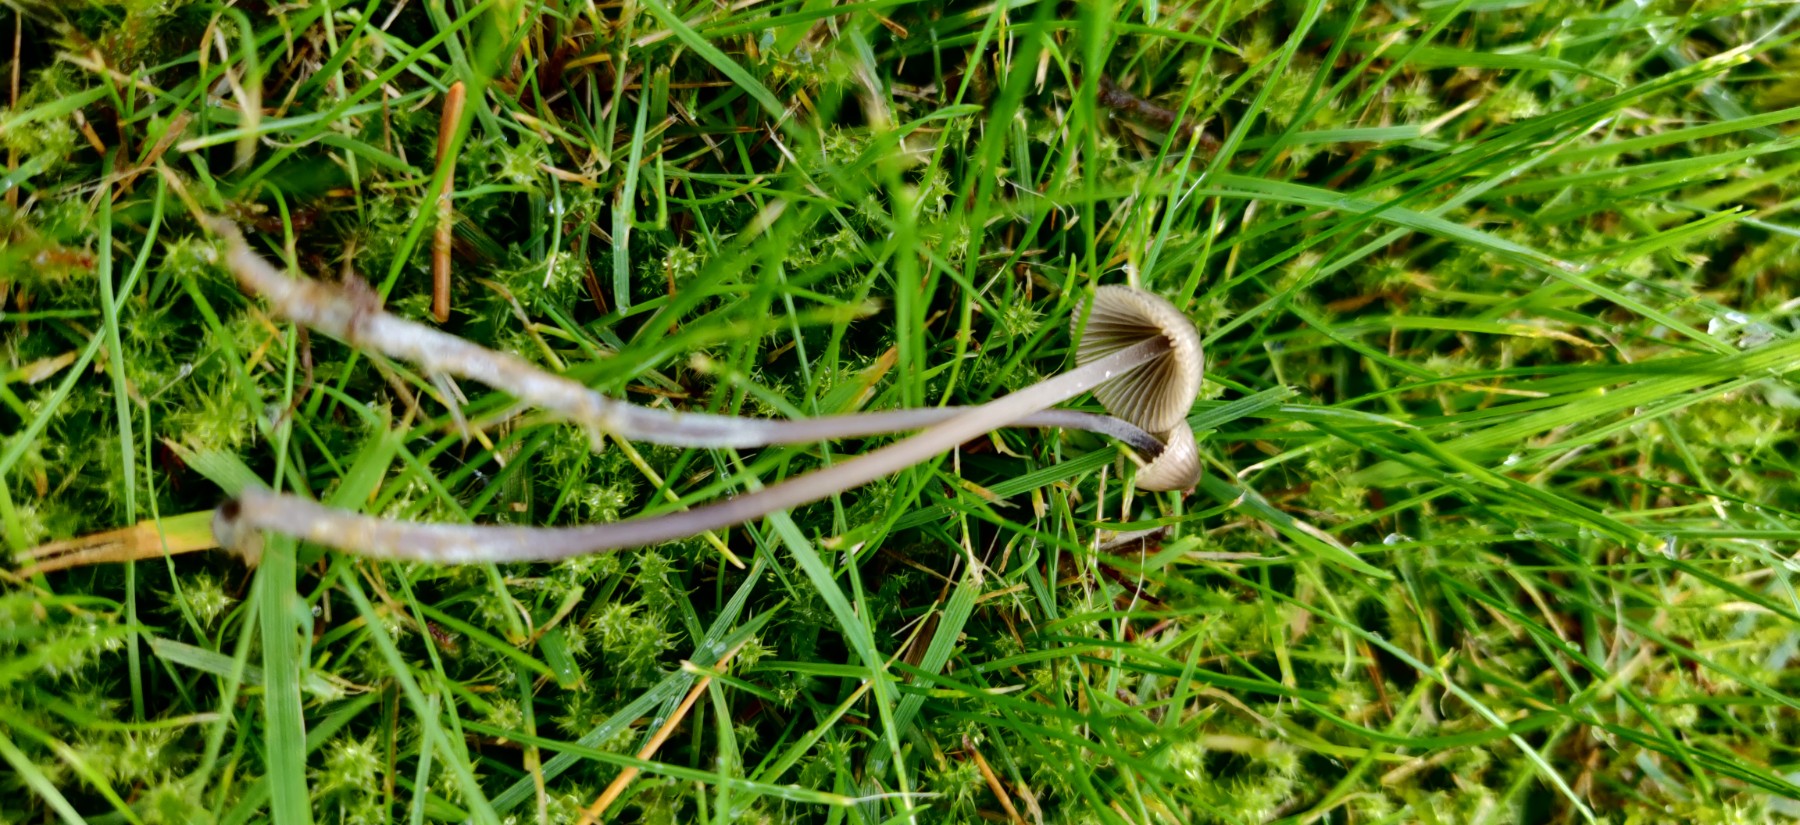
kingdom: Fungi
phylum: Basidiomycota
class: Agaricomycetes
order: Agaricales
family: Mycenaceae
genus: Mycena
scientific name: Mycena amicta
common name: iris-huesvamp
